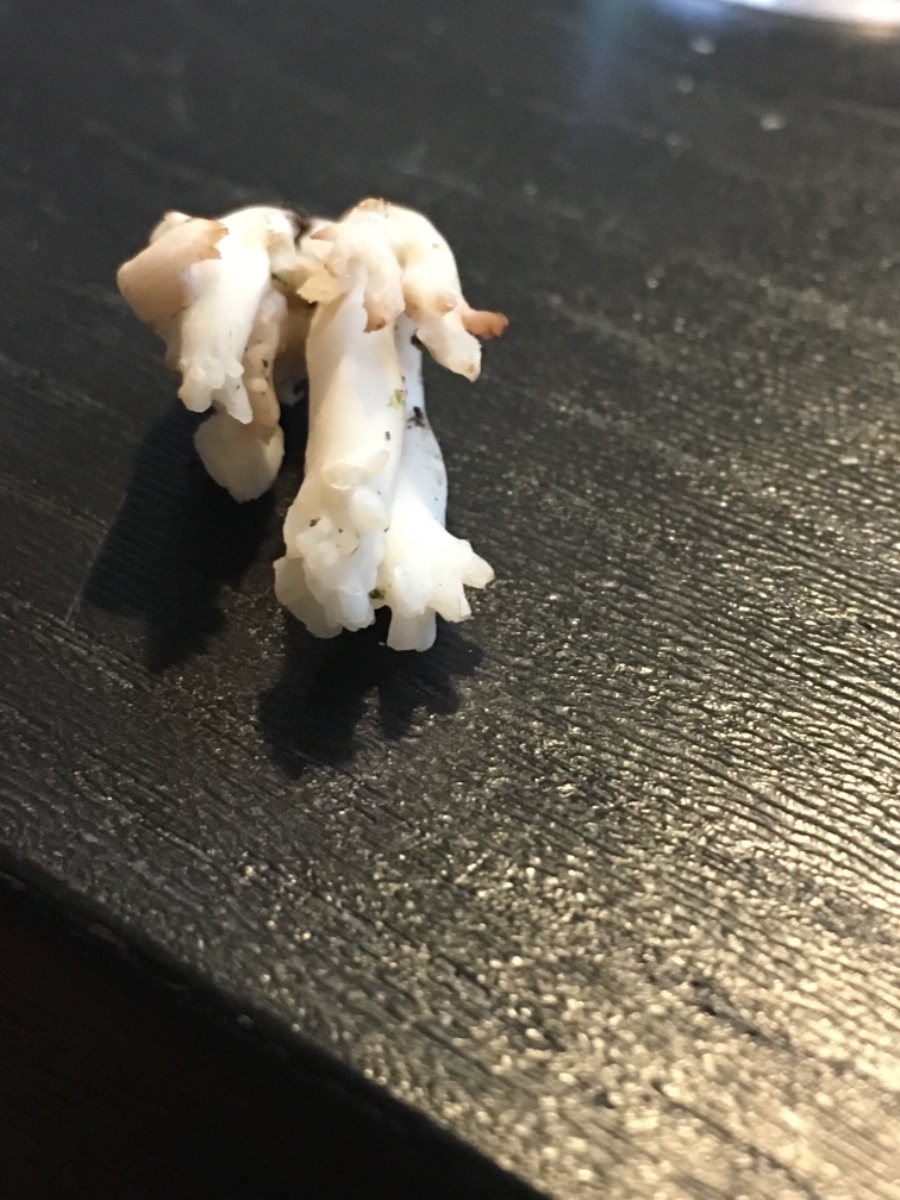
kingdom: Fungi
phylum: Basidiomycota
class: Agaricomycetes
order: Cantharellales
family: Hydnaceae
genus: Clavulina
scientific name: Clavulina
